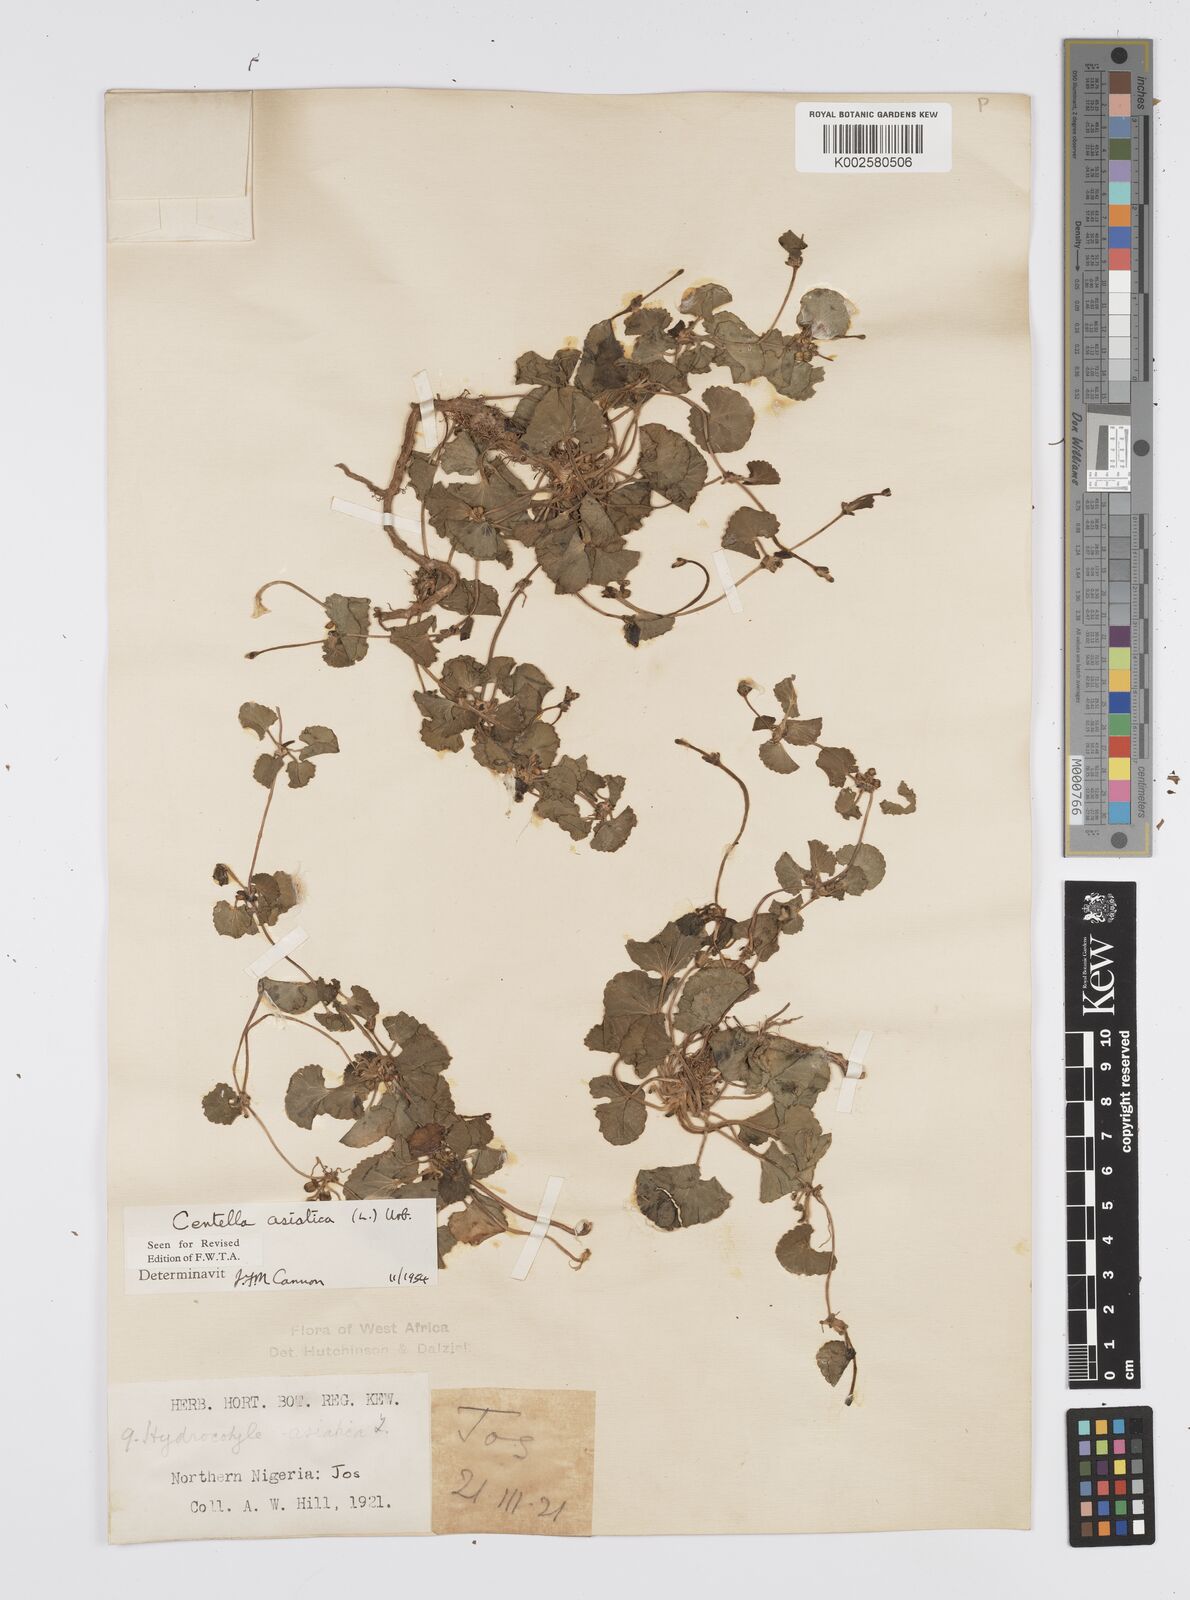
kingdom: Plantae
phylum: Tracheophyta
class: Magnoliopsida
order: Apiales
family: Apiaceae
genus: Centella
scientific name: Centella asiatica
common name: Spadeleaf
